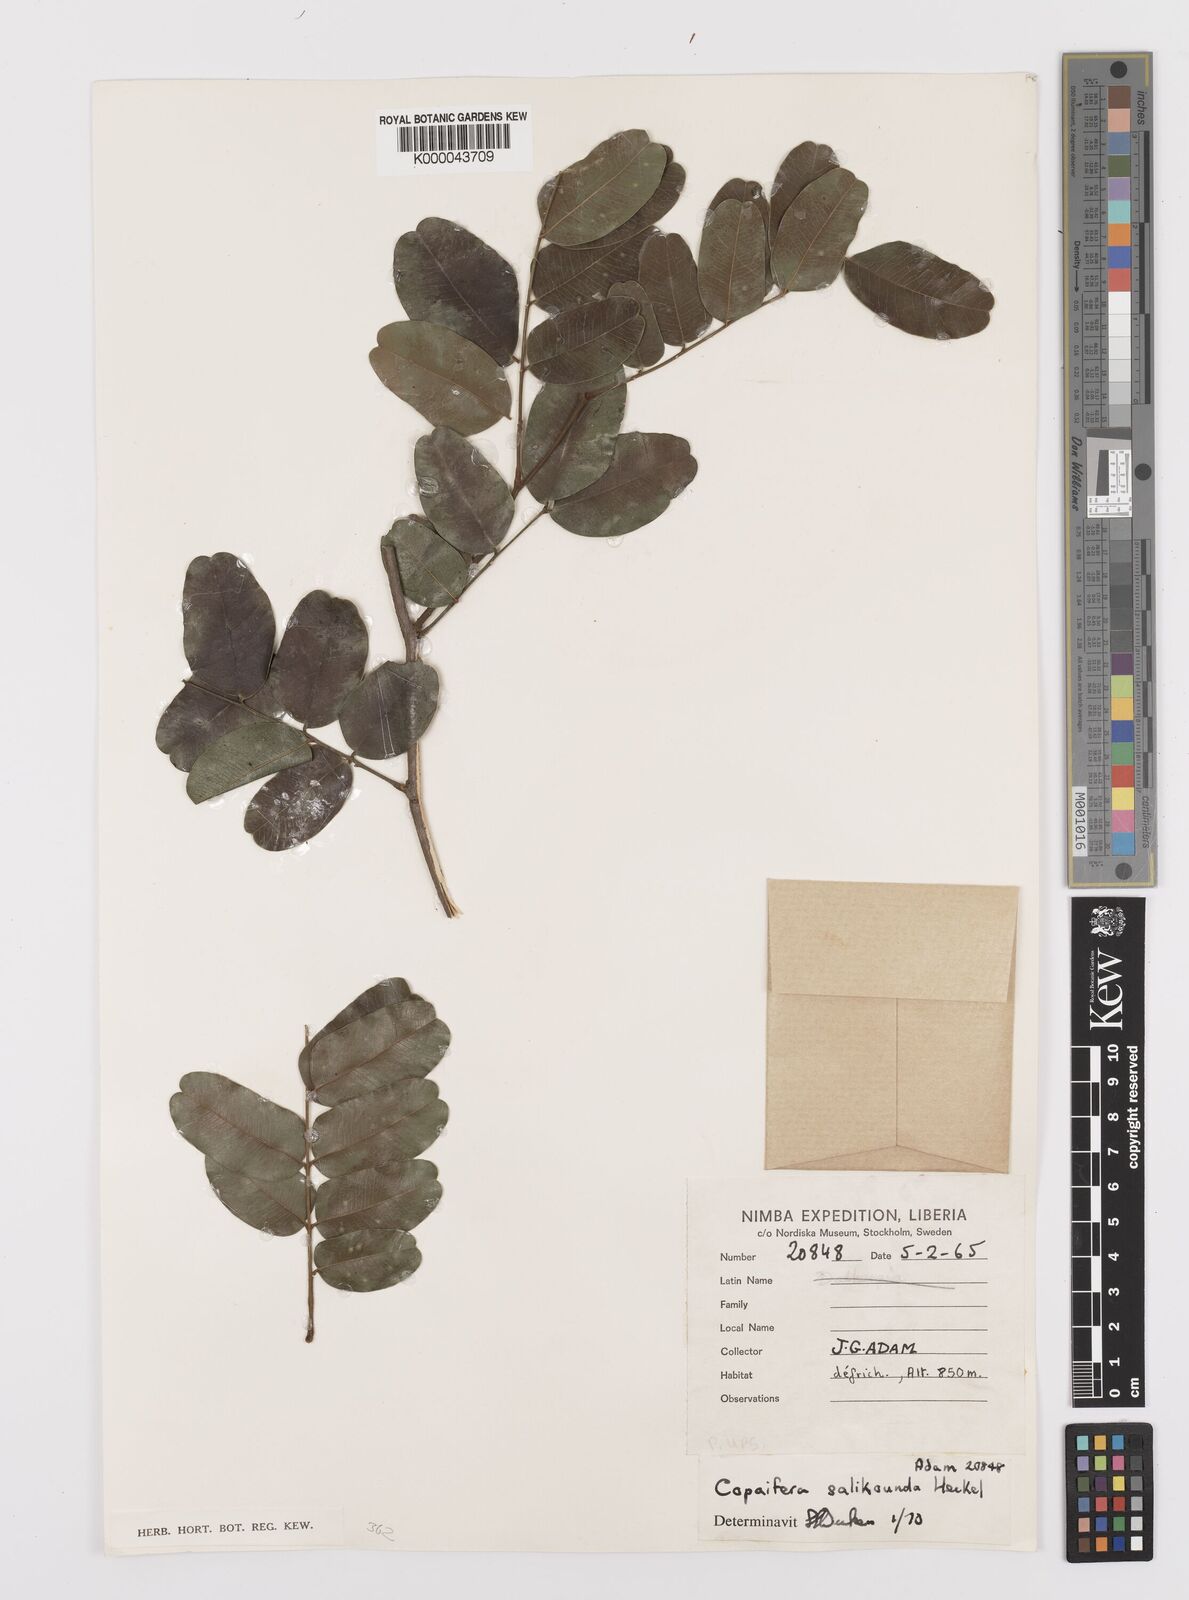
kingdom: Plantae
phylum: Tracheophyta
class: Magnoliopsida
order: Fabales
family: Fabaceae
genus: Copaifera
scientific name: Copaifera salikounda
